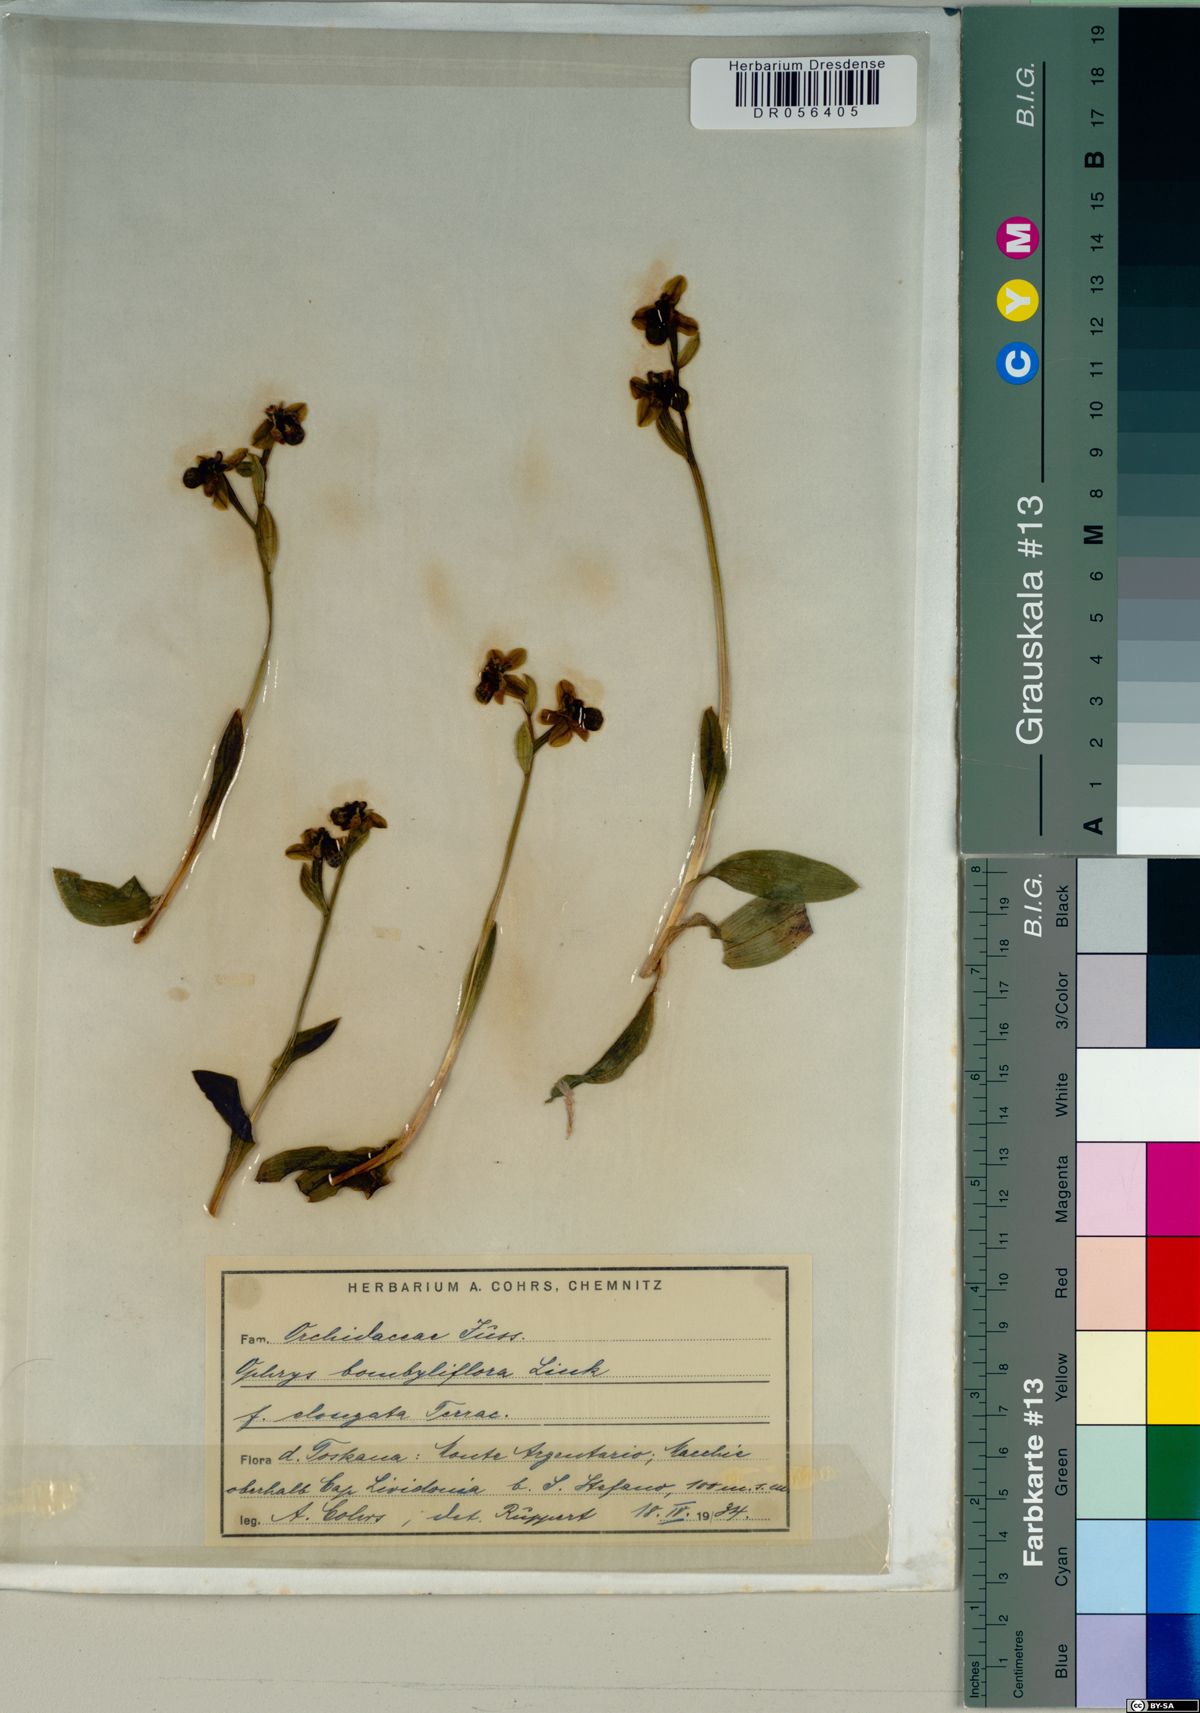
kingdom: Plantae
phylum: Tracheophyta
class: Liliopsida
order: Asparagales
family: Orchidaceae
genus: Ophrys
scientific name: Ophrys bombyliflora
